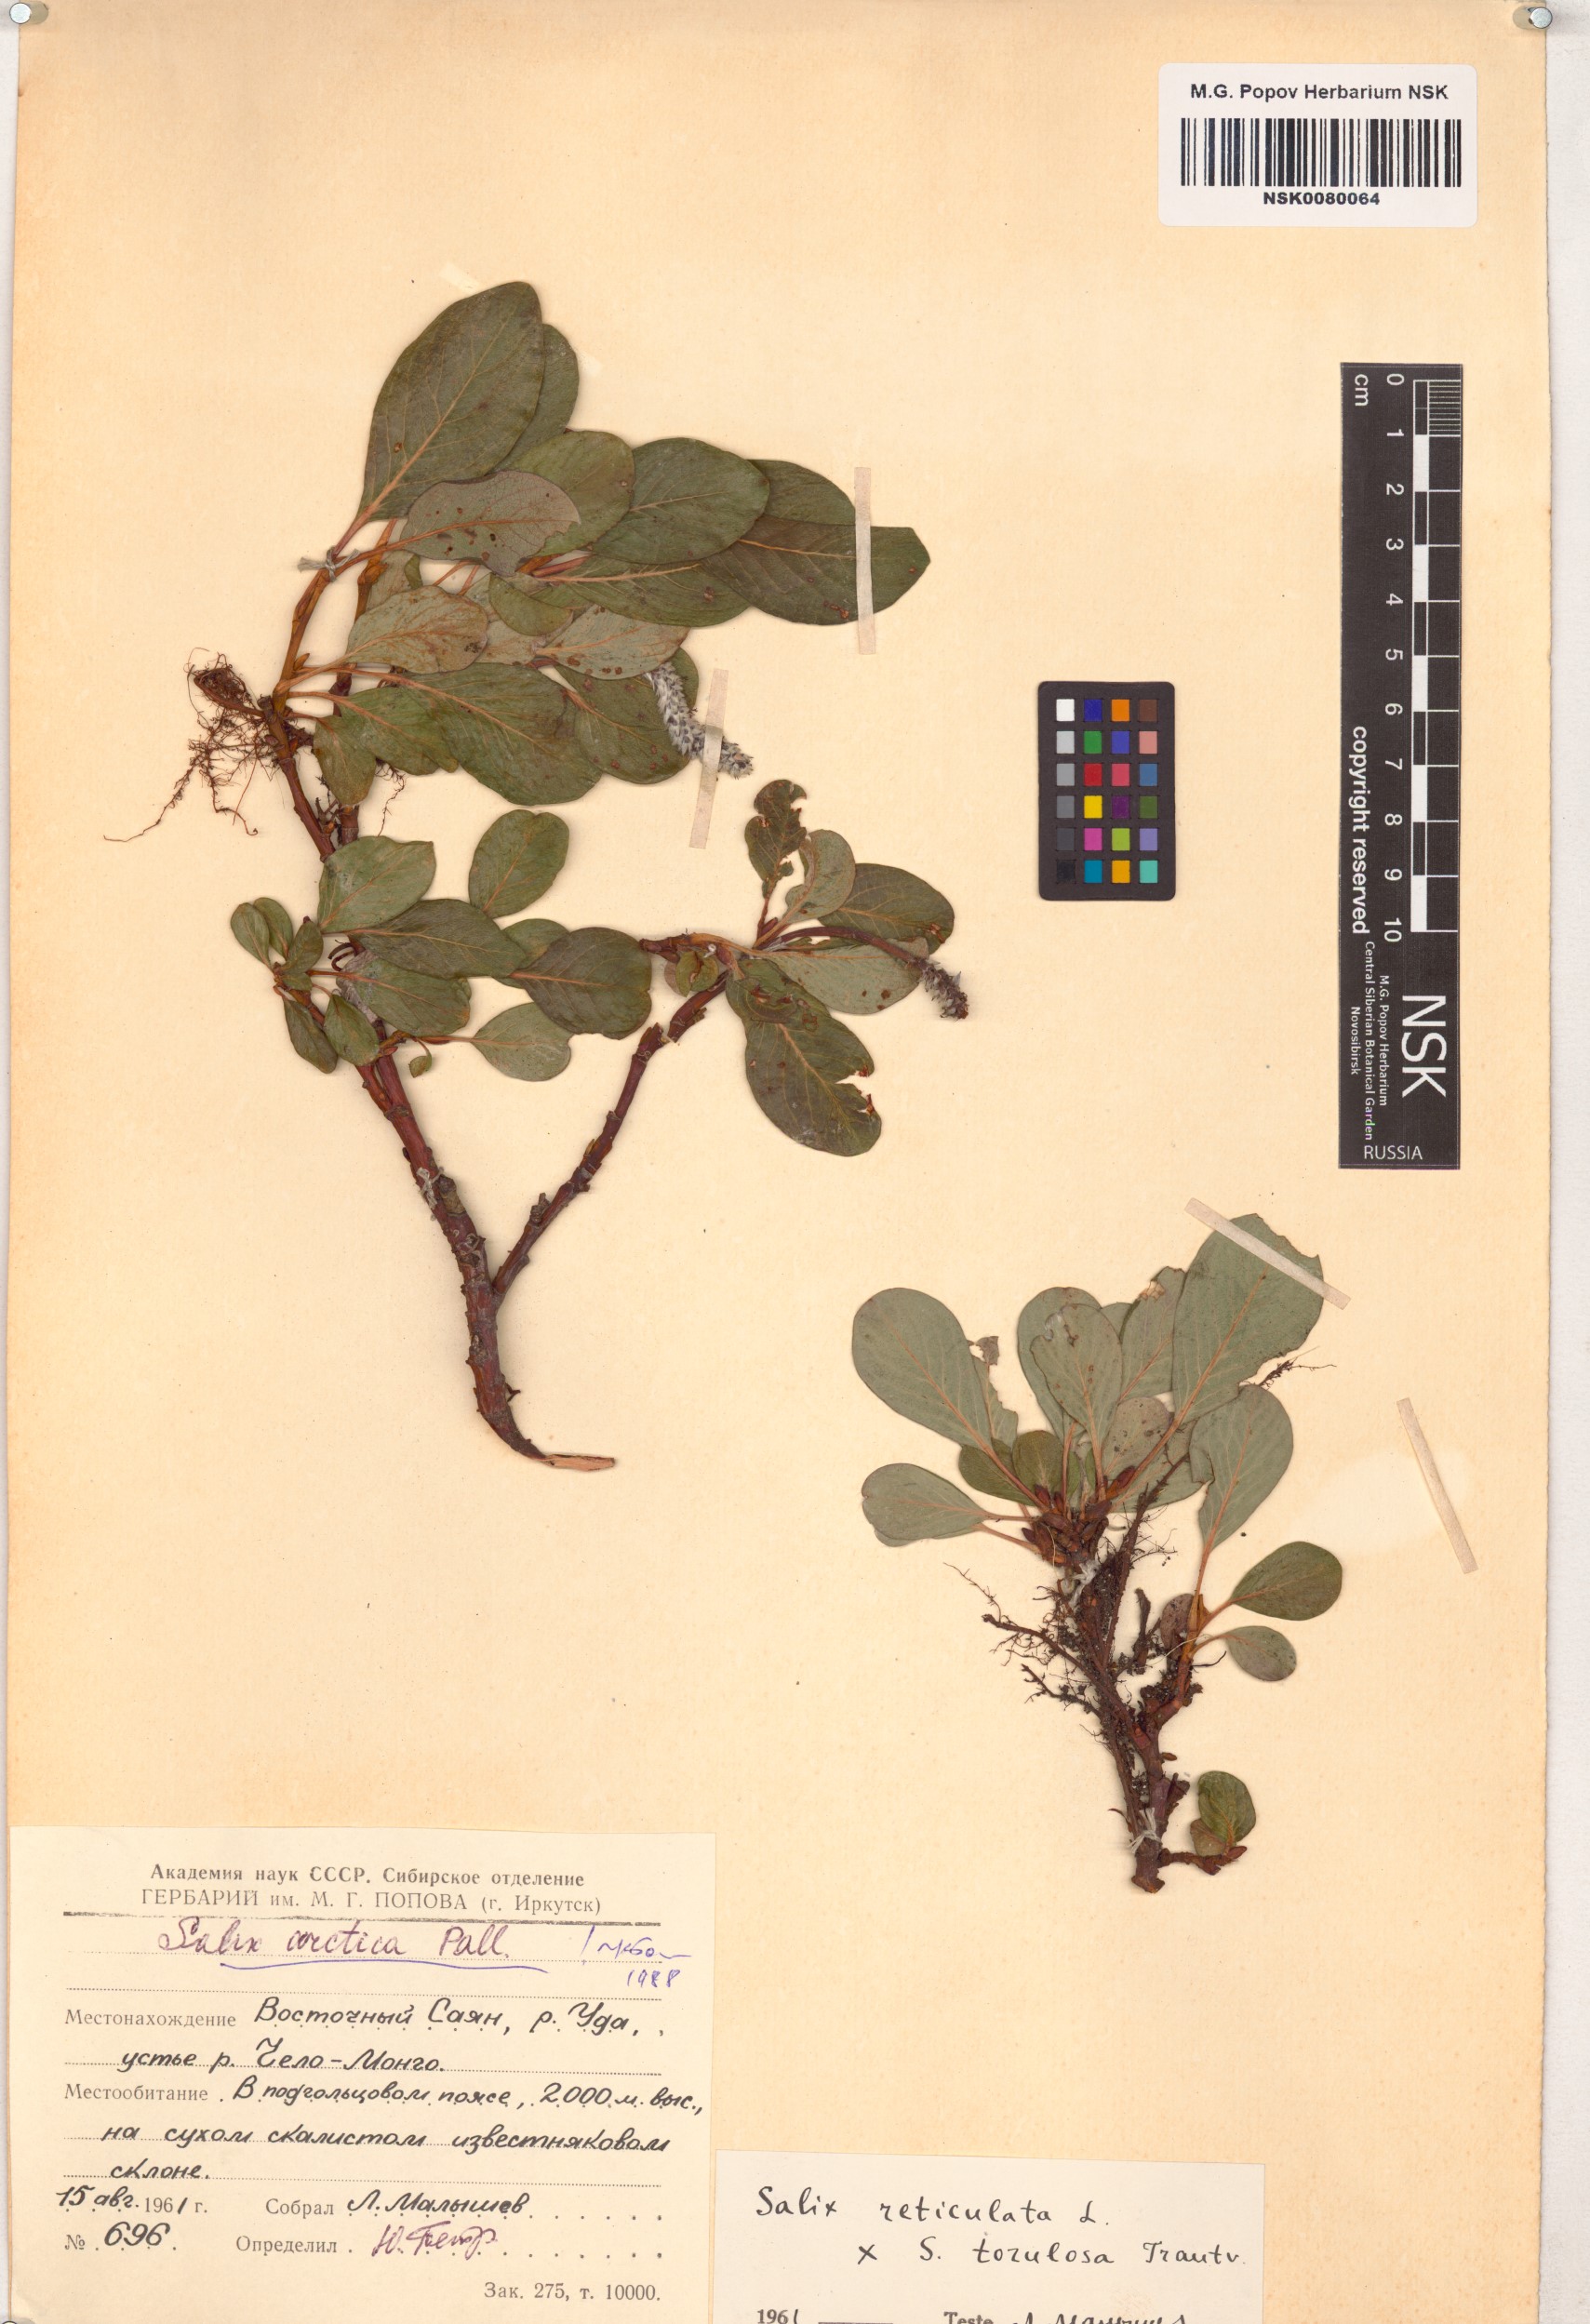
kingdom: Plantae
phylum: Tracheophyta
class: Magnoliopsida
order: Malpighiales
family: Salicaceae
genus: Salix
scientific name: Salix arctica
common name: Arctic willow
